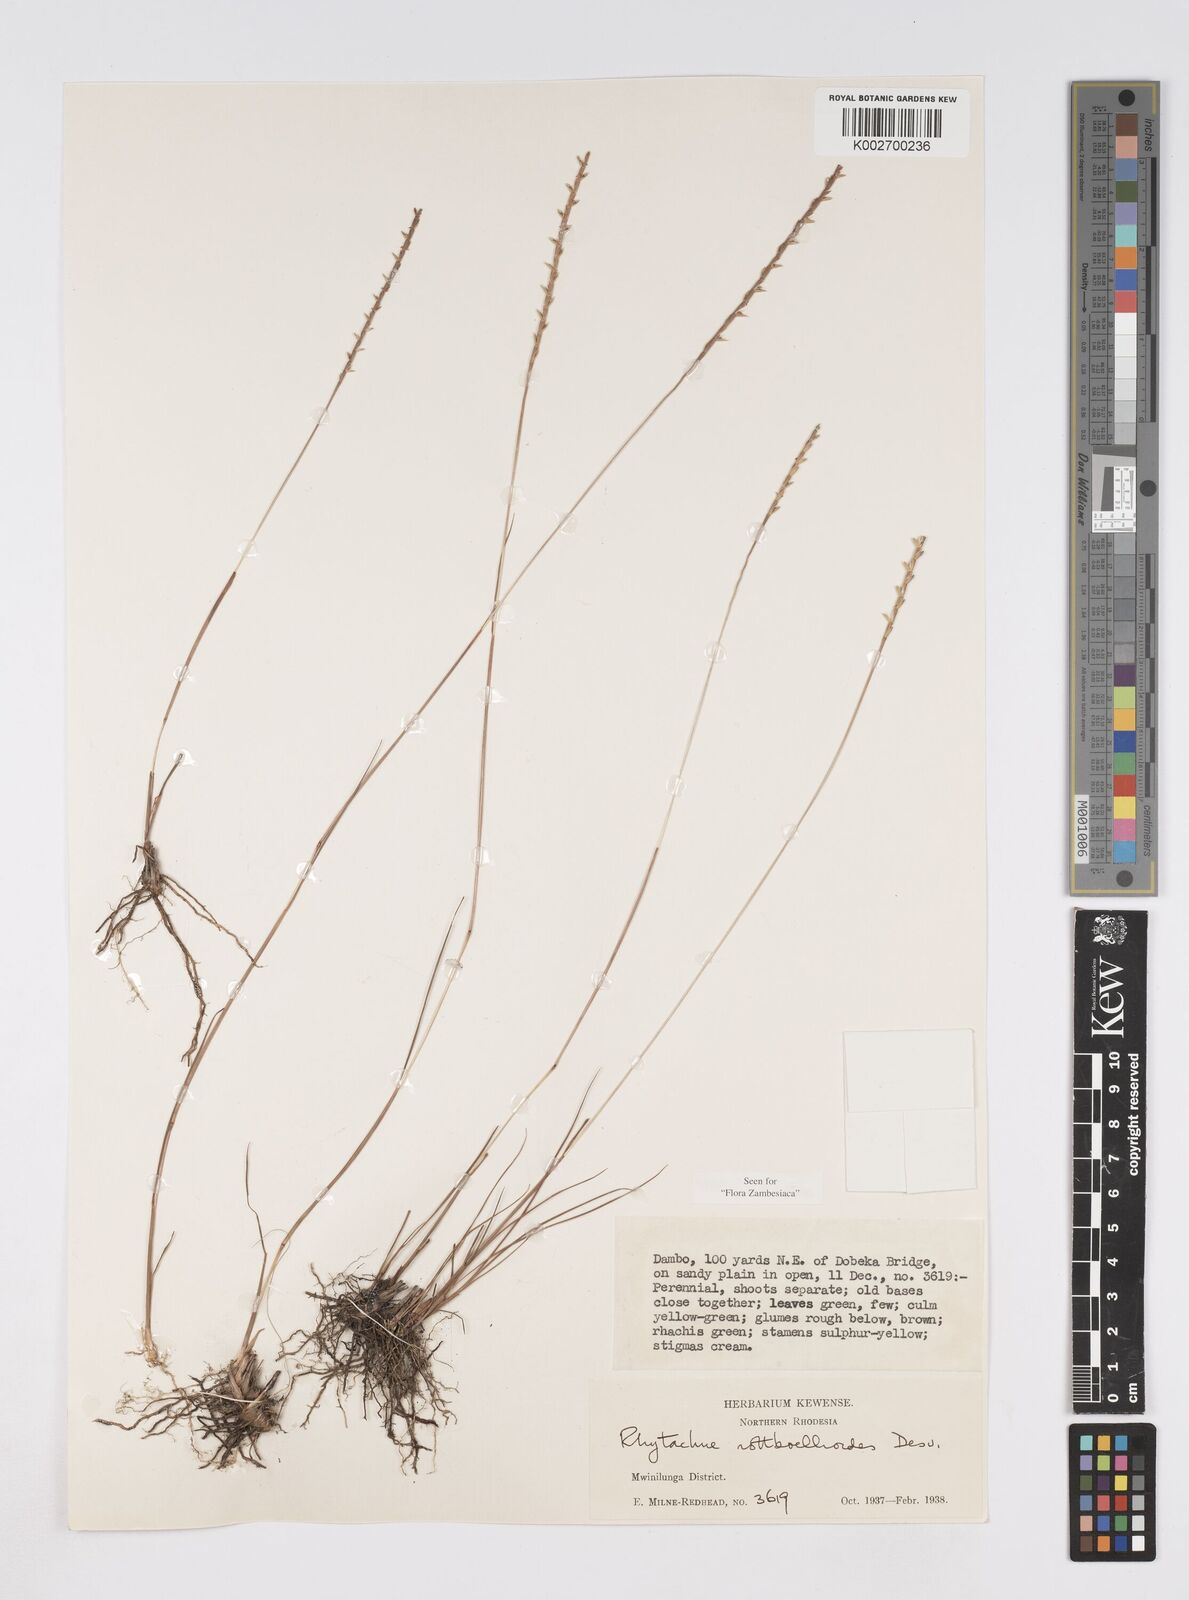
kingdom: Plantae
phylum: Tracheophyta
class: Liliopsida
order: Poales
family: Poaceae
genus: Rhytachne
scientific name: Rhytachne rottboellioides
